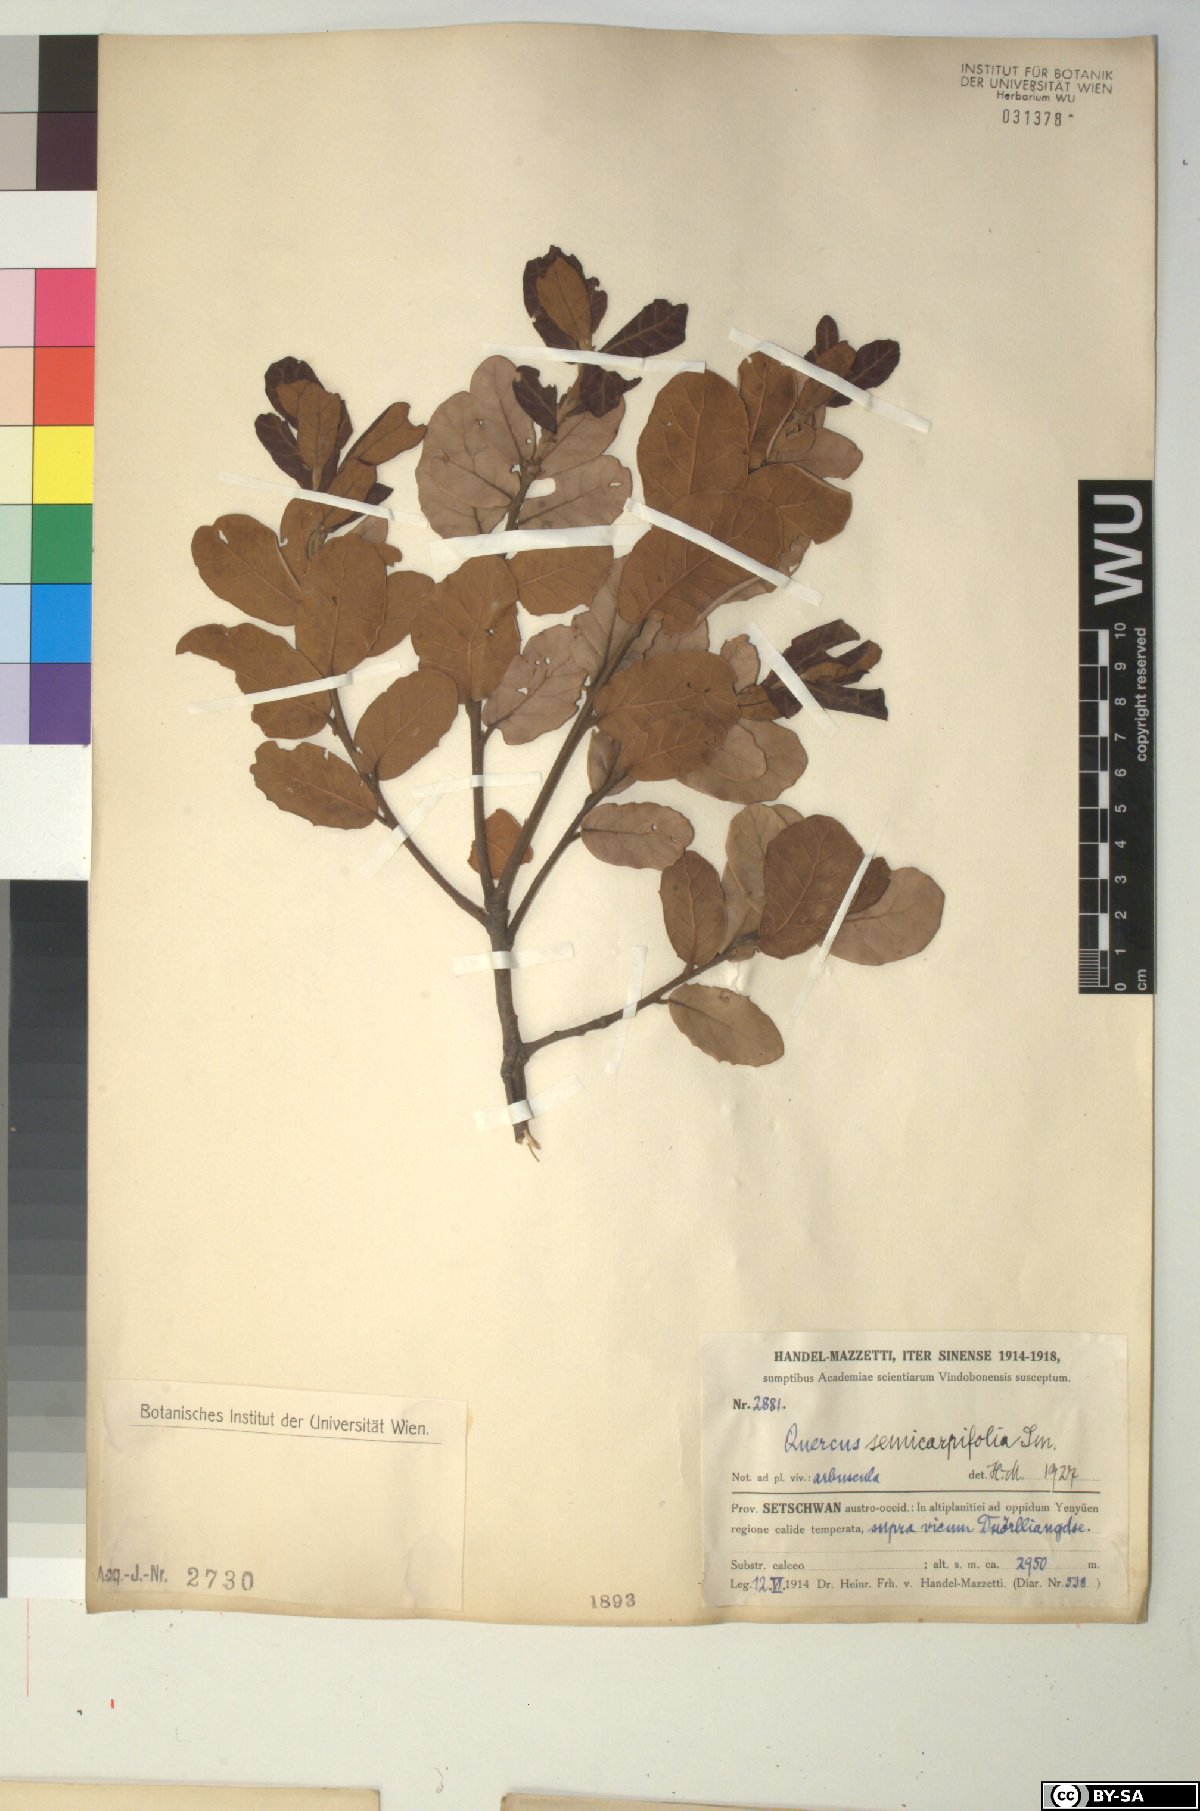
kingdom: Plantae
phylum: Tracheophyta
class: Magnoliopsida
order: Fagales
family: Fagaceae
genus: Quercus
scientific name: Quercus semecarpifolia
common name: Brown oak
